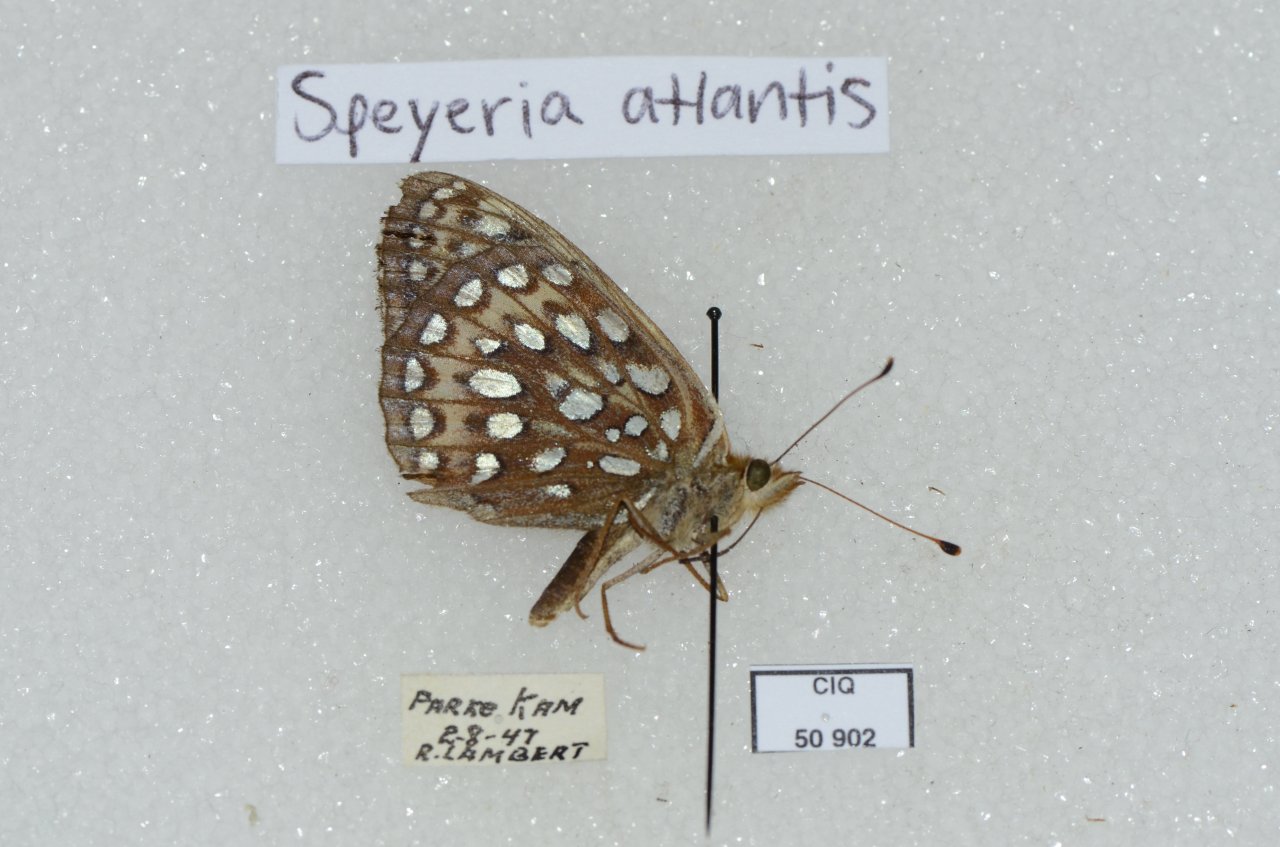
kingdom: Animalia
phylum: Arthropoda
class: Insecta
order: Lepidoptera
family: Nymphalidae
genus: Speyeria
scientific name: Speyeria atlantis
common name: Atlantis Fritillary
